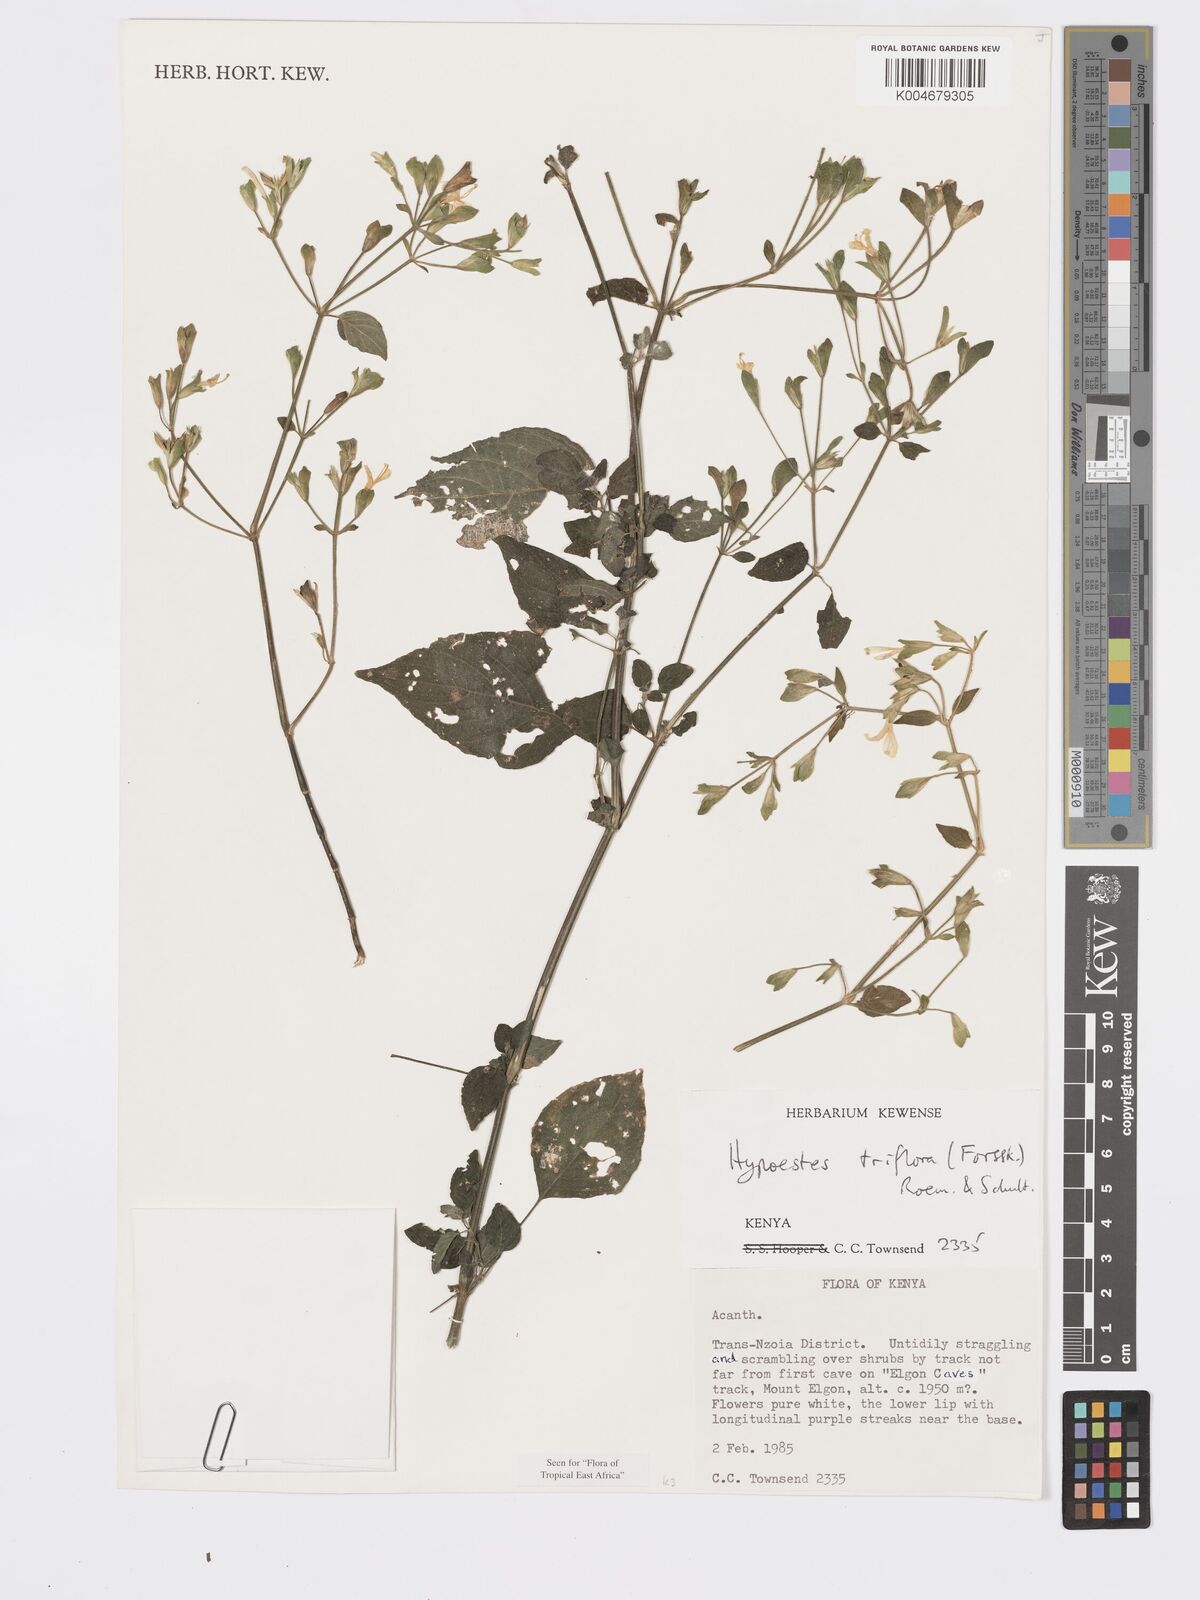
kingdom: Plantae
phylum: Tracheophyta
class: Magnoliopsida
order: Lamiales
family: Acanthaceae
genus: Hypoestes
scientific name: Hypoestes triflora
